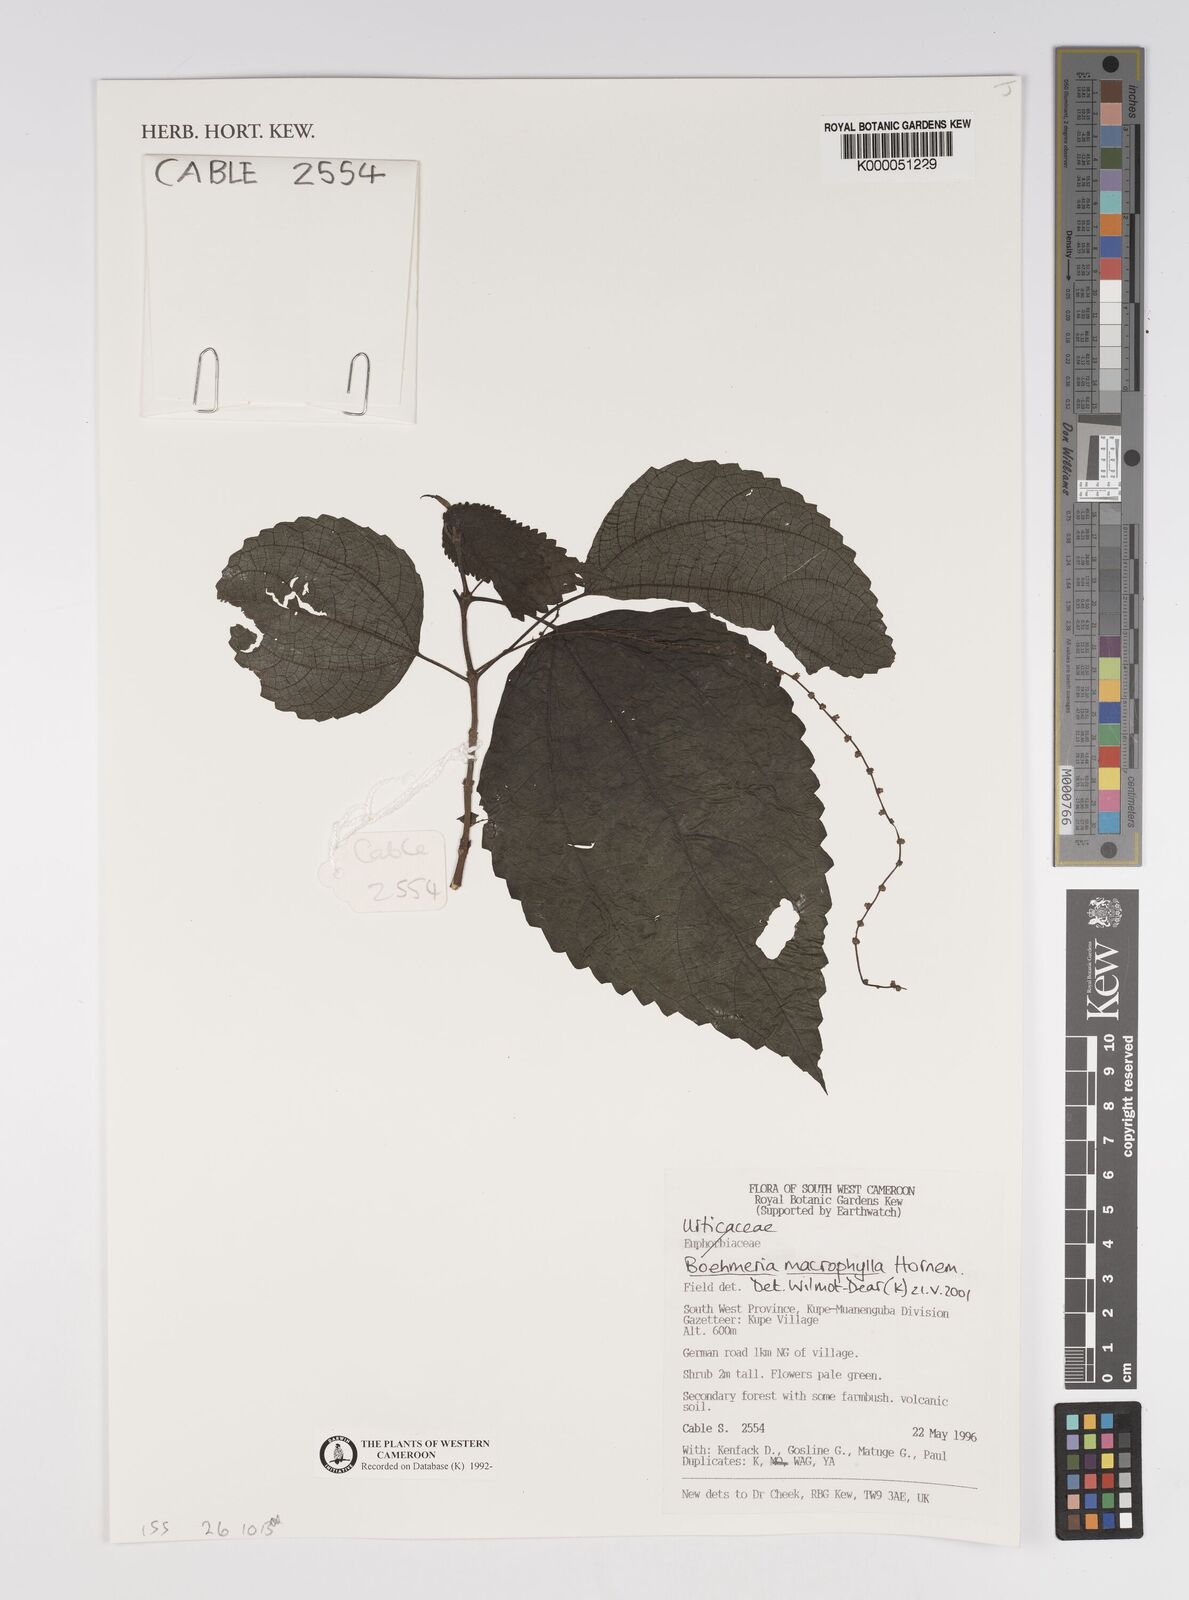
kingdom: Plantae
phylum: Tracheophyta
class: Magnoliopsida
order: Rosales
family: Urticaceae
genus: Boehmeria
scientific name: Boehmeria virgata
